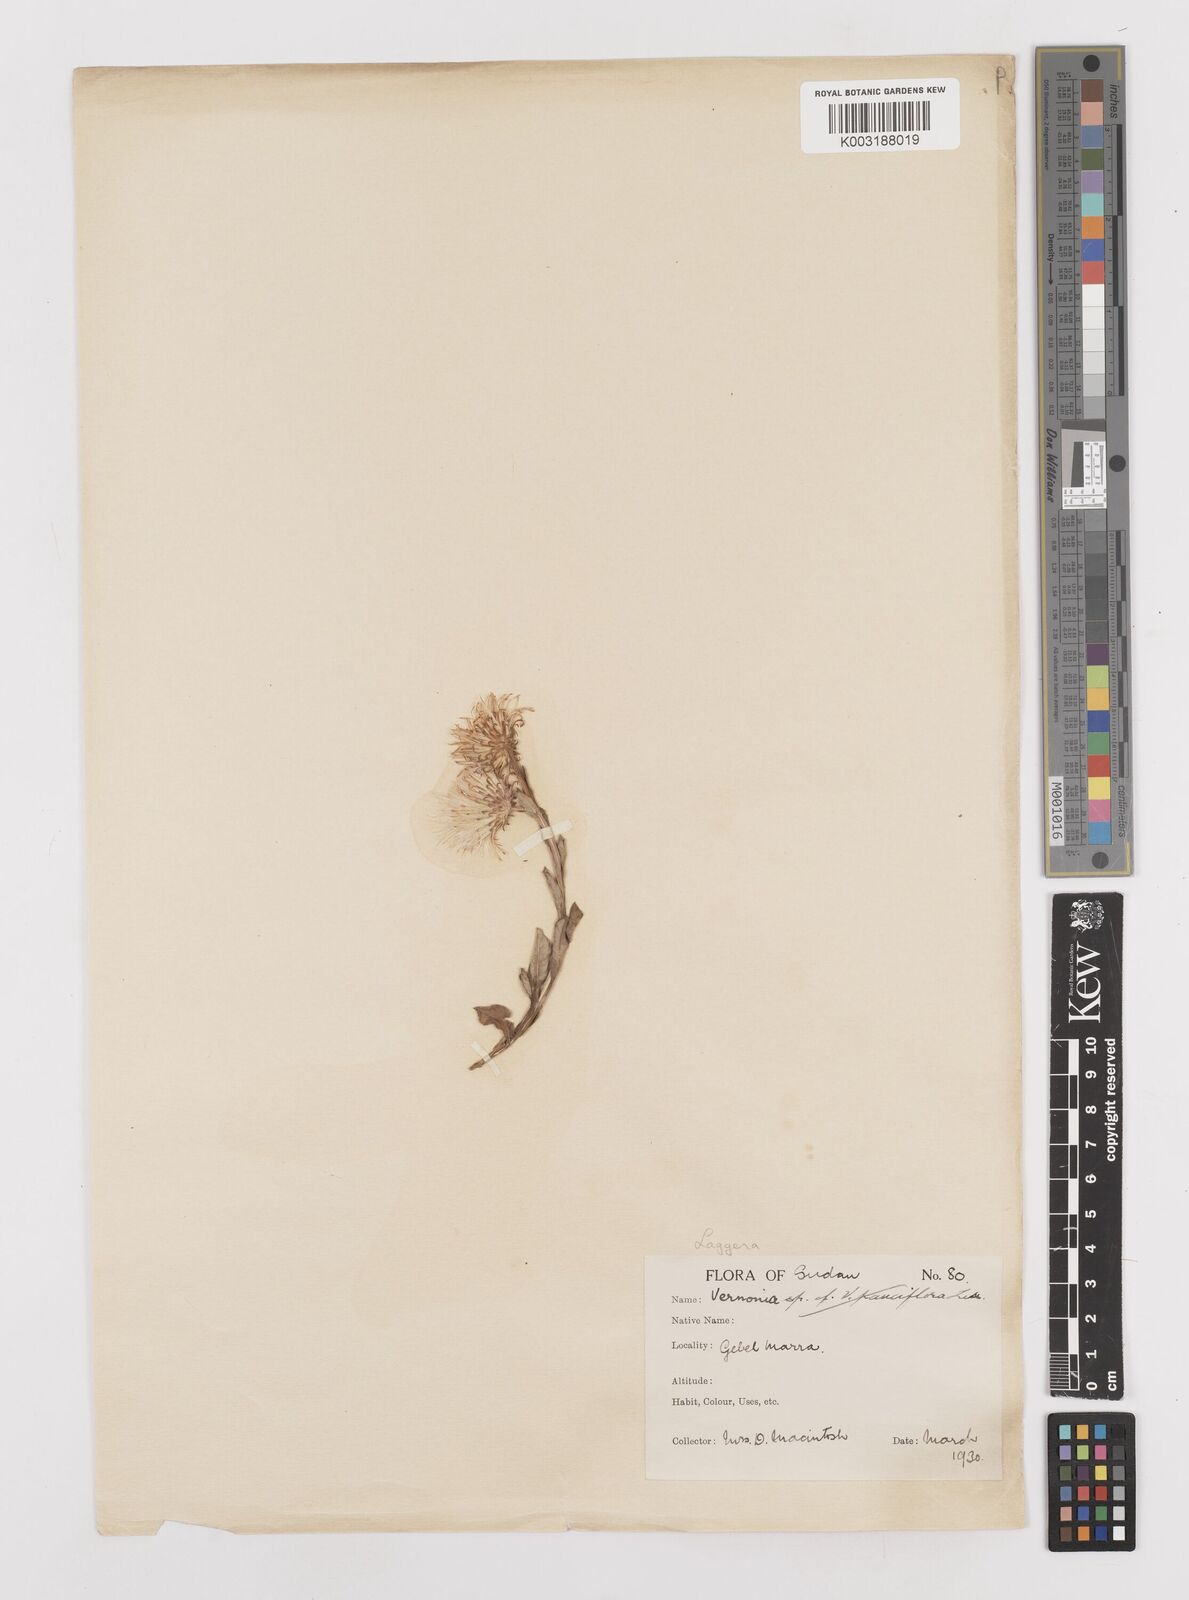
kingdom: Plantae
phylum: Tracheophyta
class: Magnoliopsida
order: Asterales
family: Asteraceae
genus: Laggera
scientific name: Laggera oloptera
